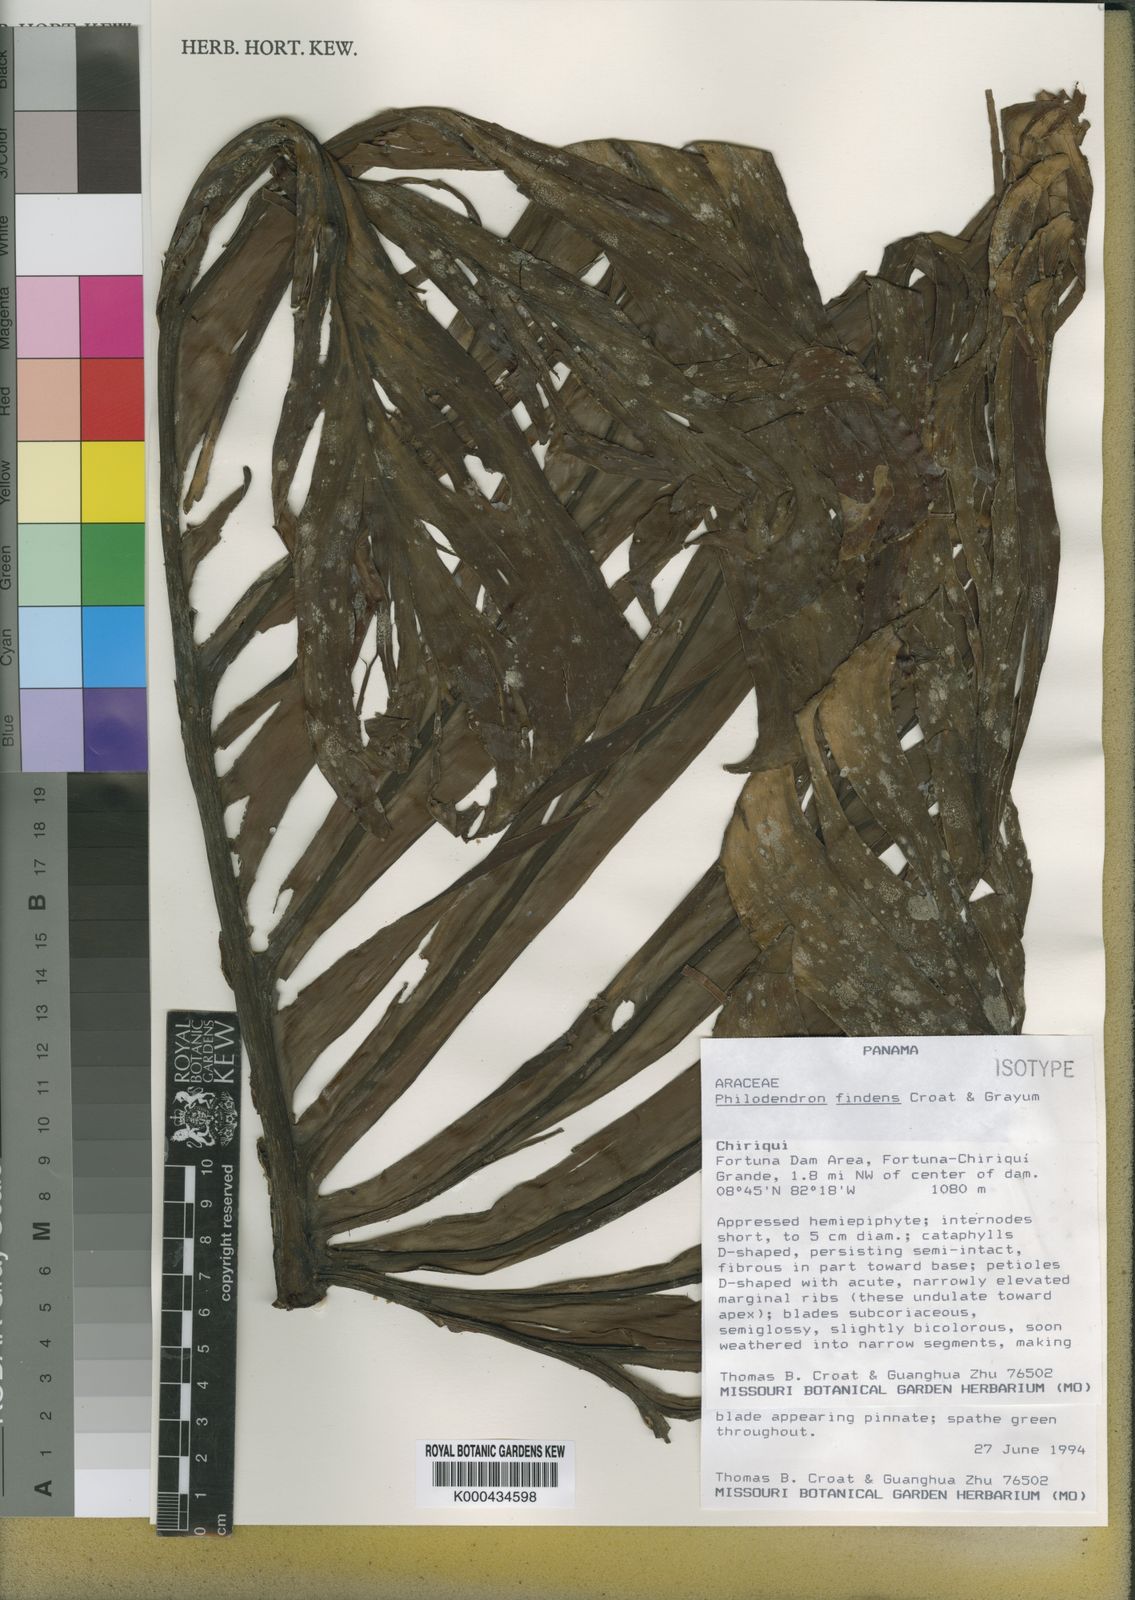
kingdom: Plantae
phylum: Tracheophyta
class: Liliopsida
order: Alismatales
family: Araceae
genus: Philodendron
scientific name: Philodendron findens
